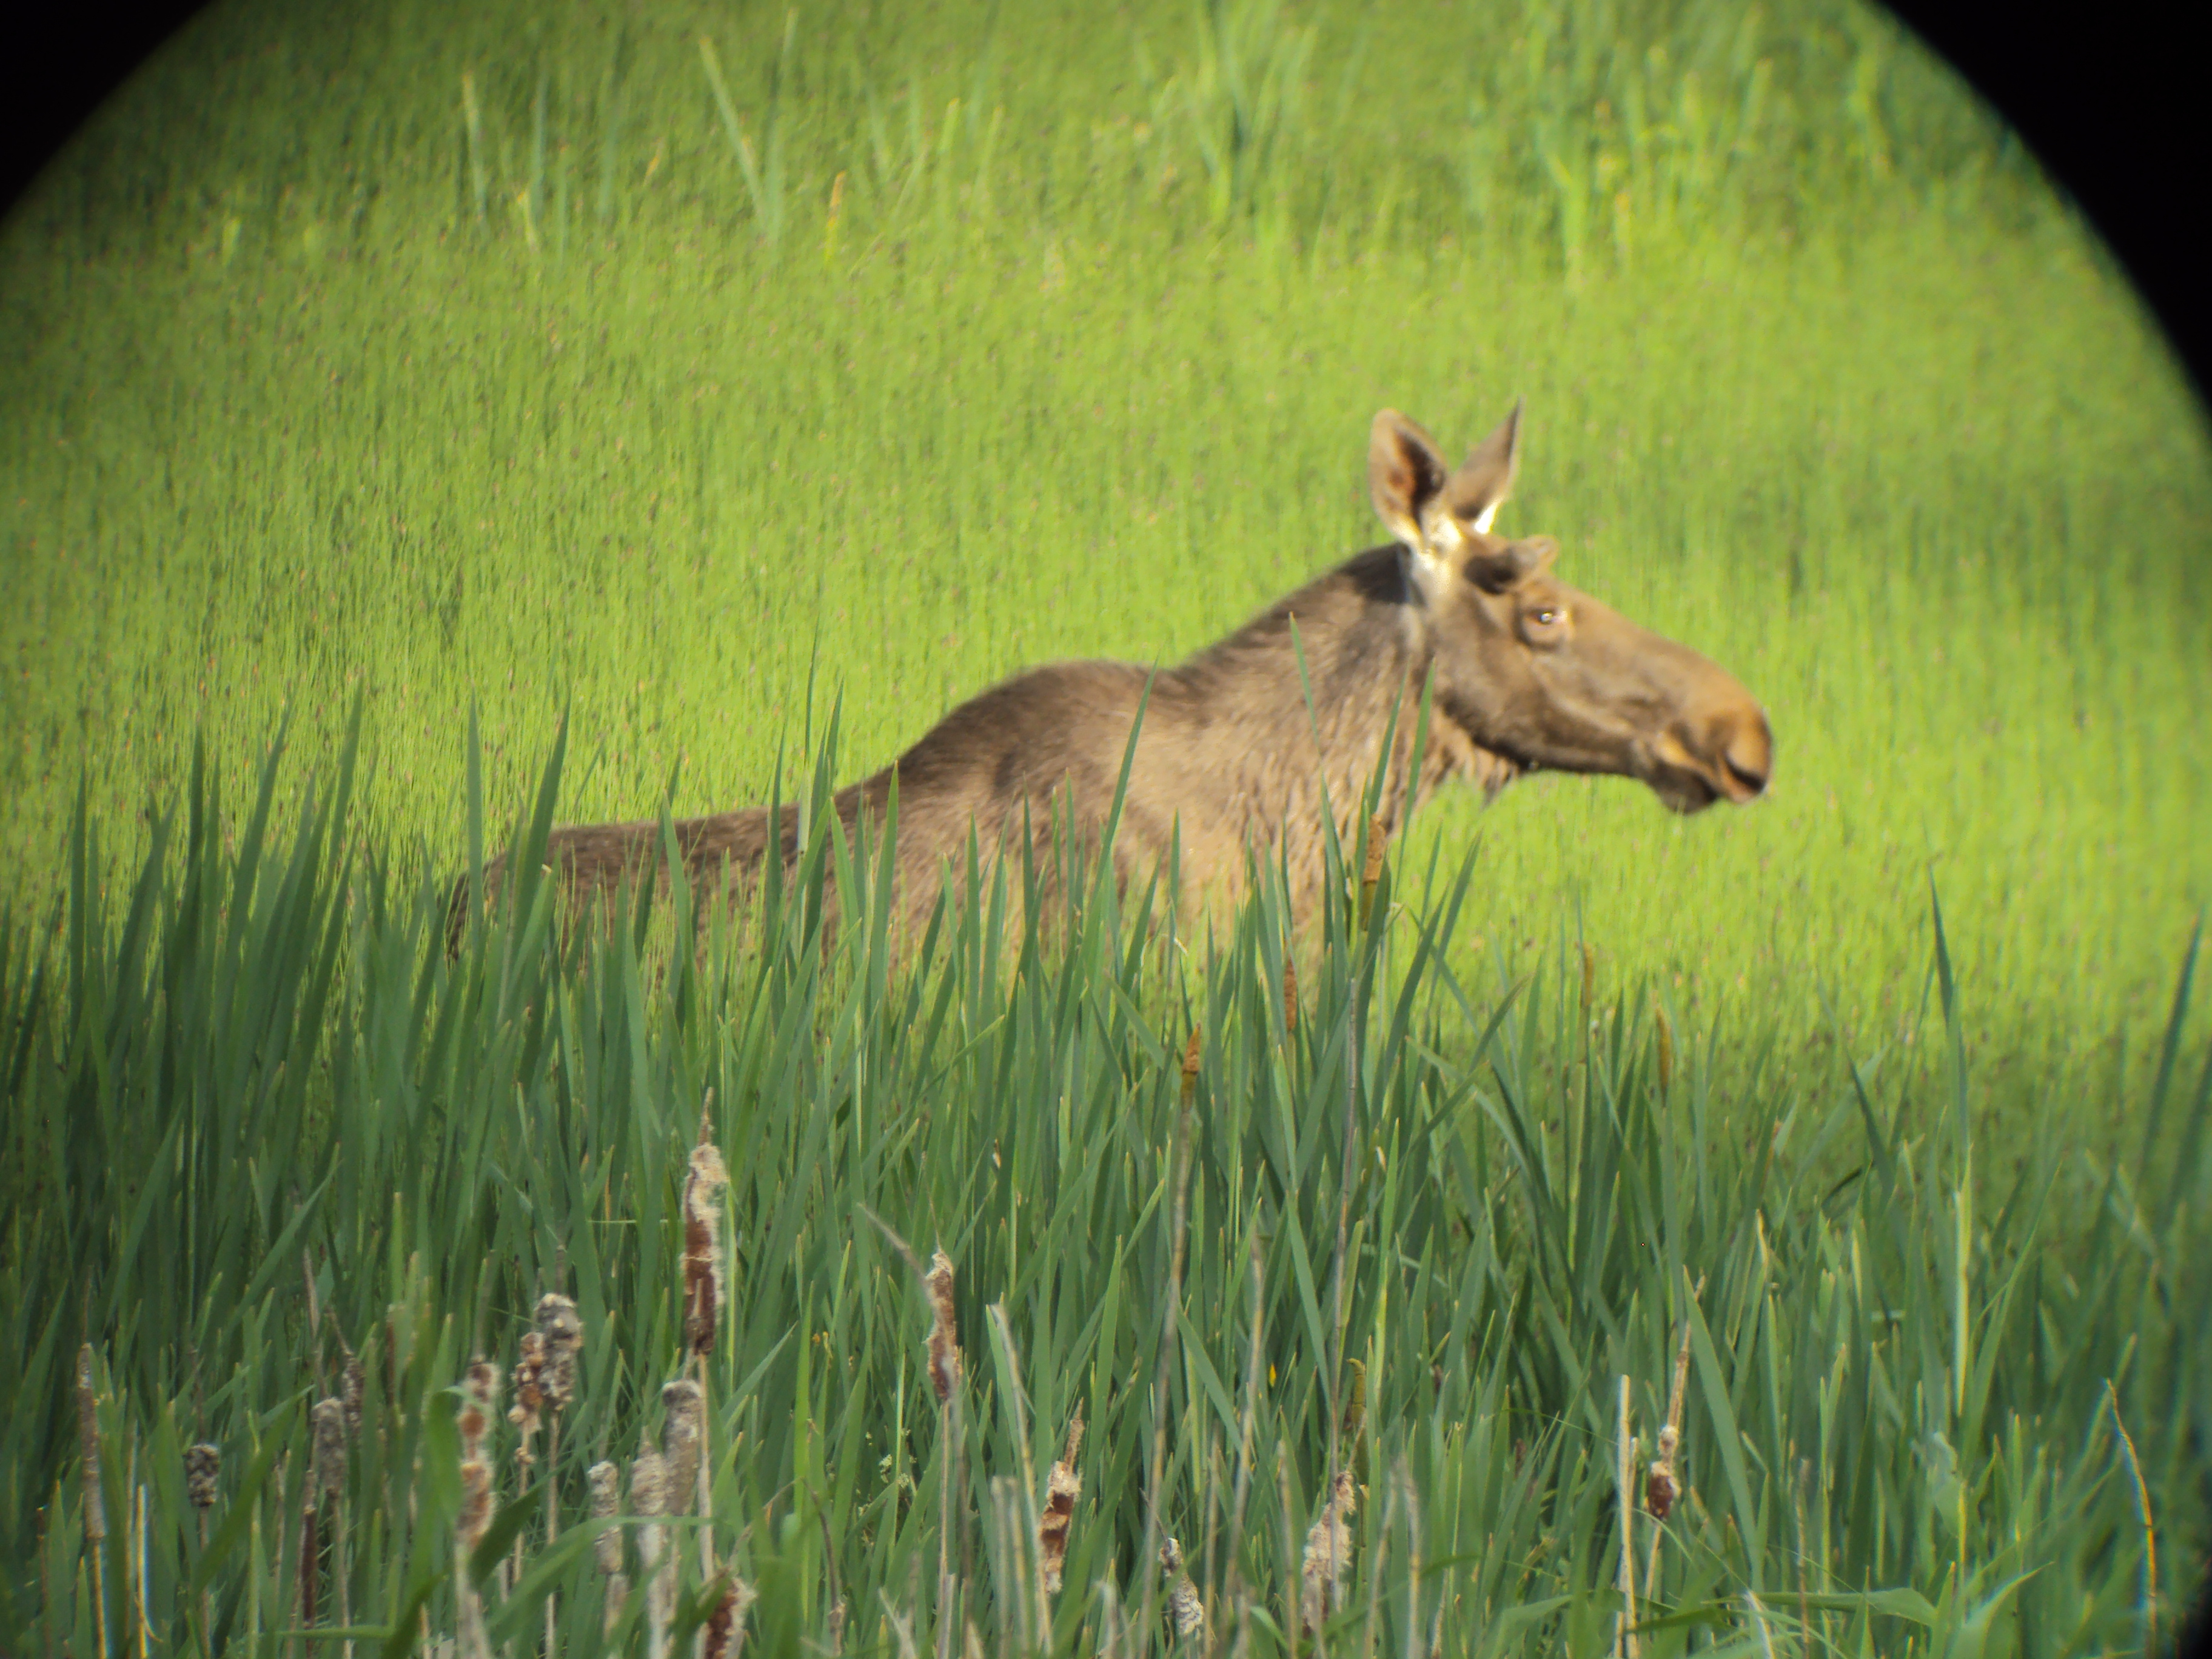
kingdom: Animalia
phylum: Chordata
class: Mammalia
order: Artiodactyla
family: Cervidae
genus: Alces
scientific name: Alces alces
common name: Moose
